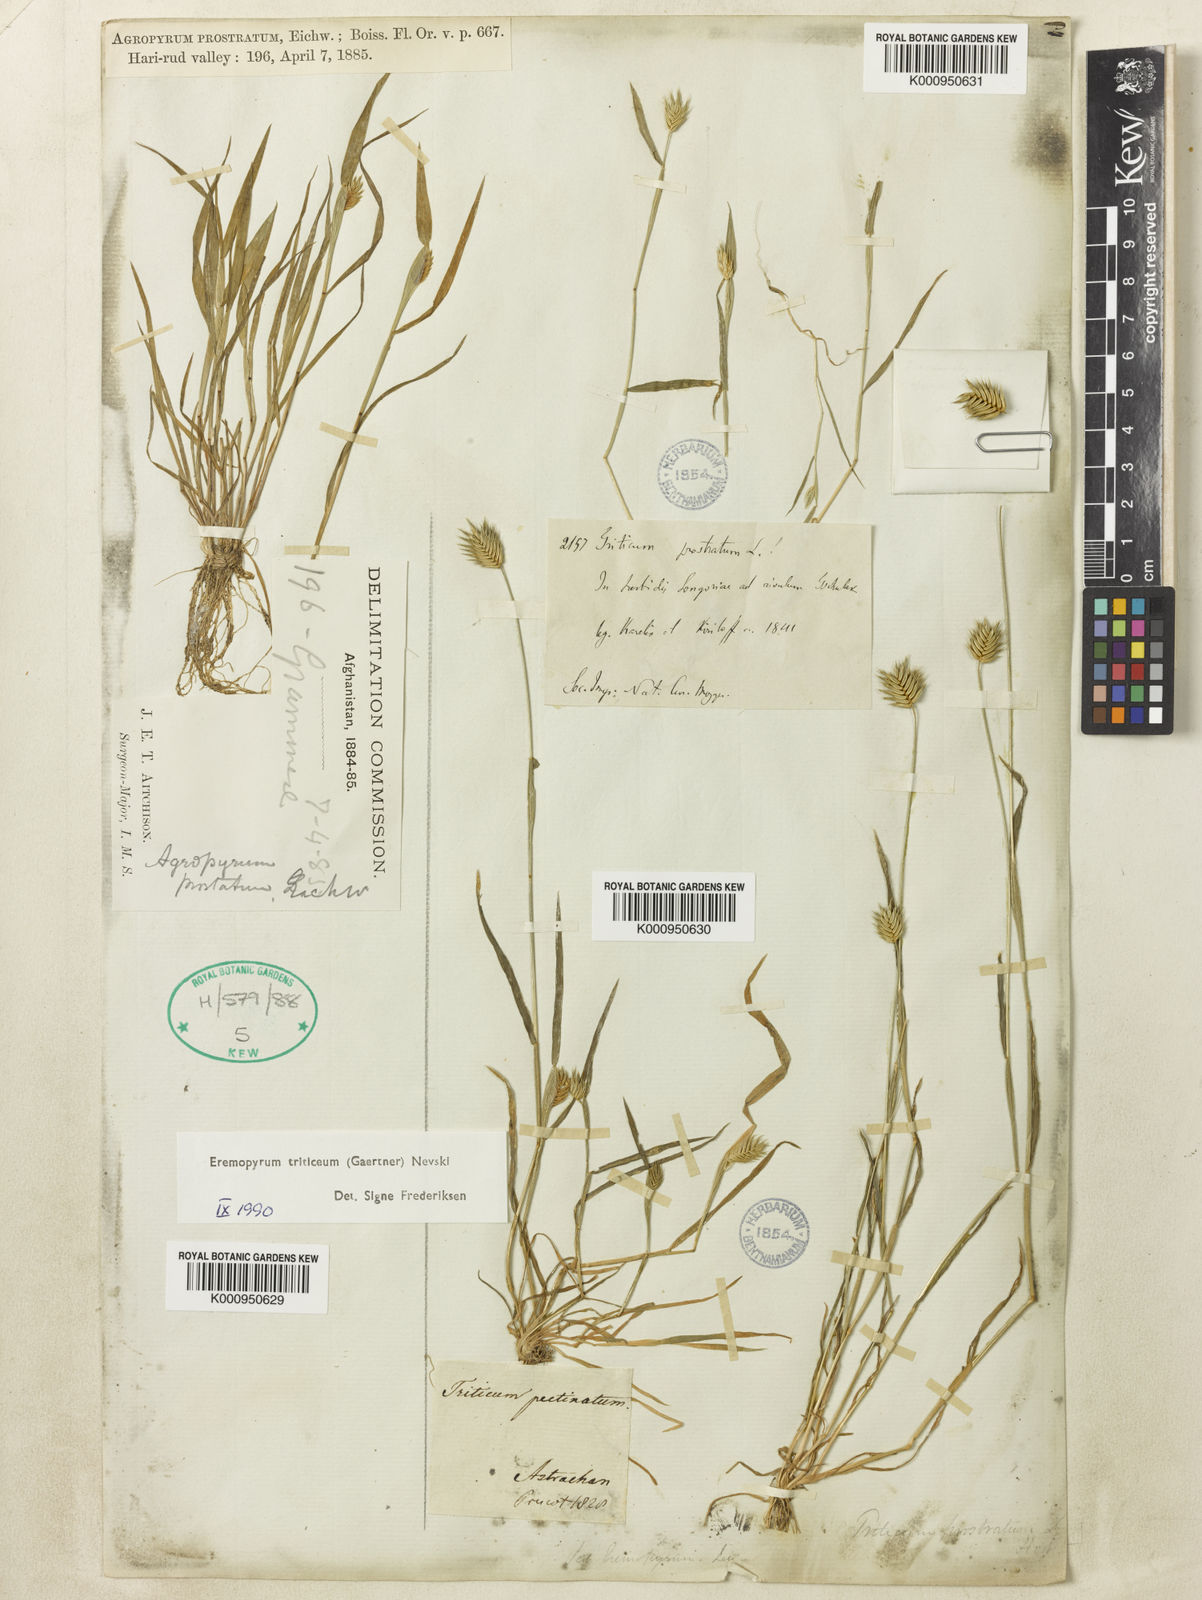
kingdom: Plantae
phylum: Tracheophyta
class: Liliopsida
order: Poales
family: Poaceae
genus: Eremopyrum
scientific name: Eremopyrum triticeum
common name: Annual wheatgrass
